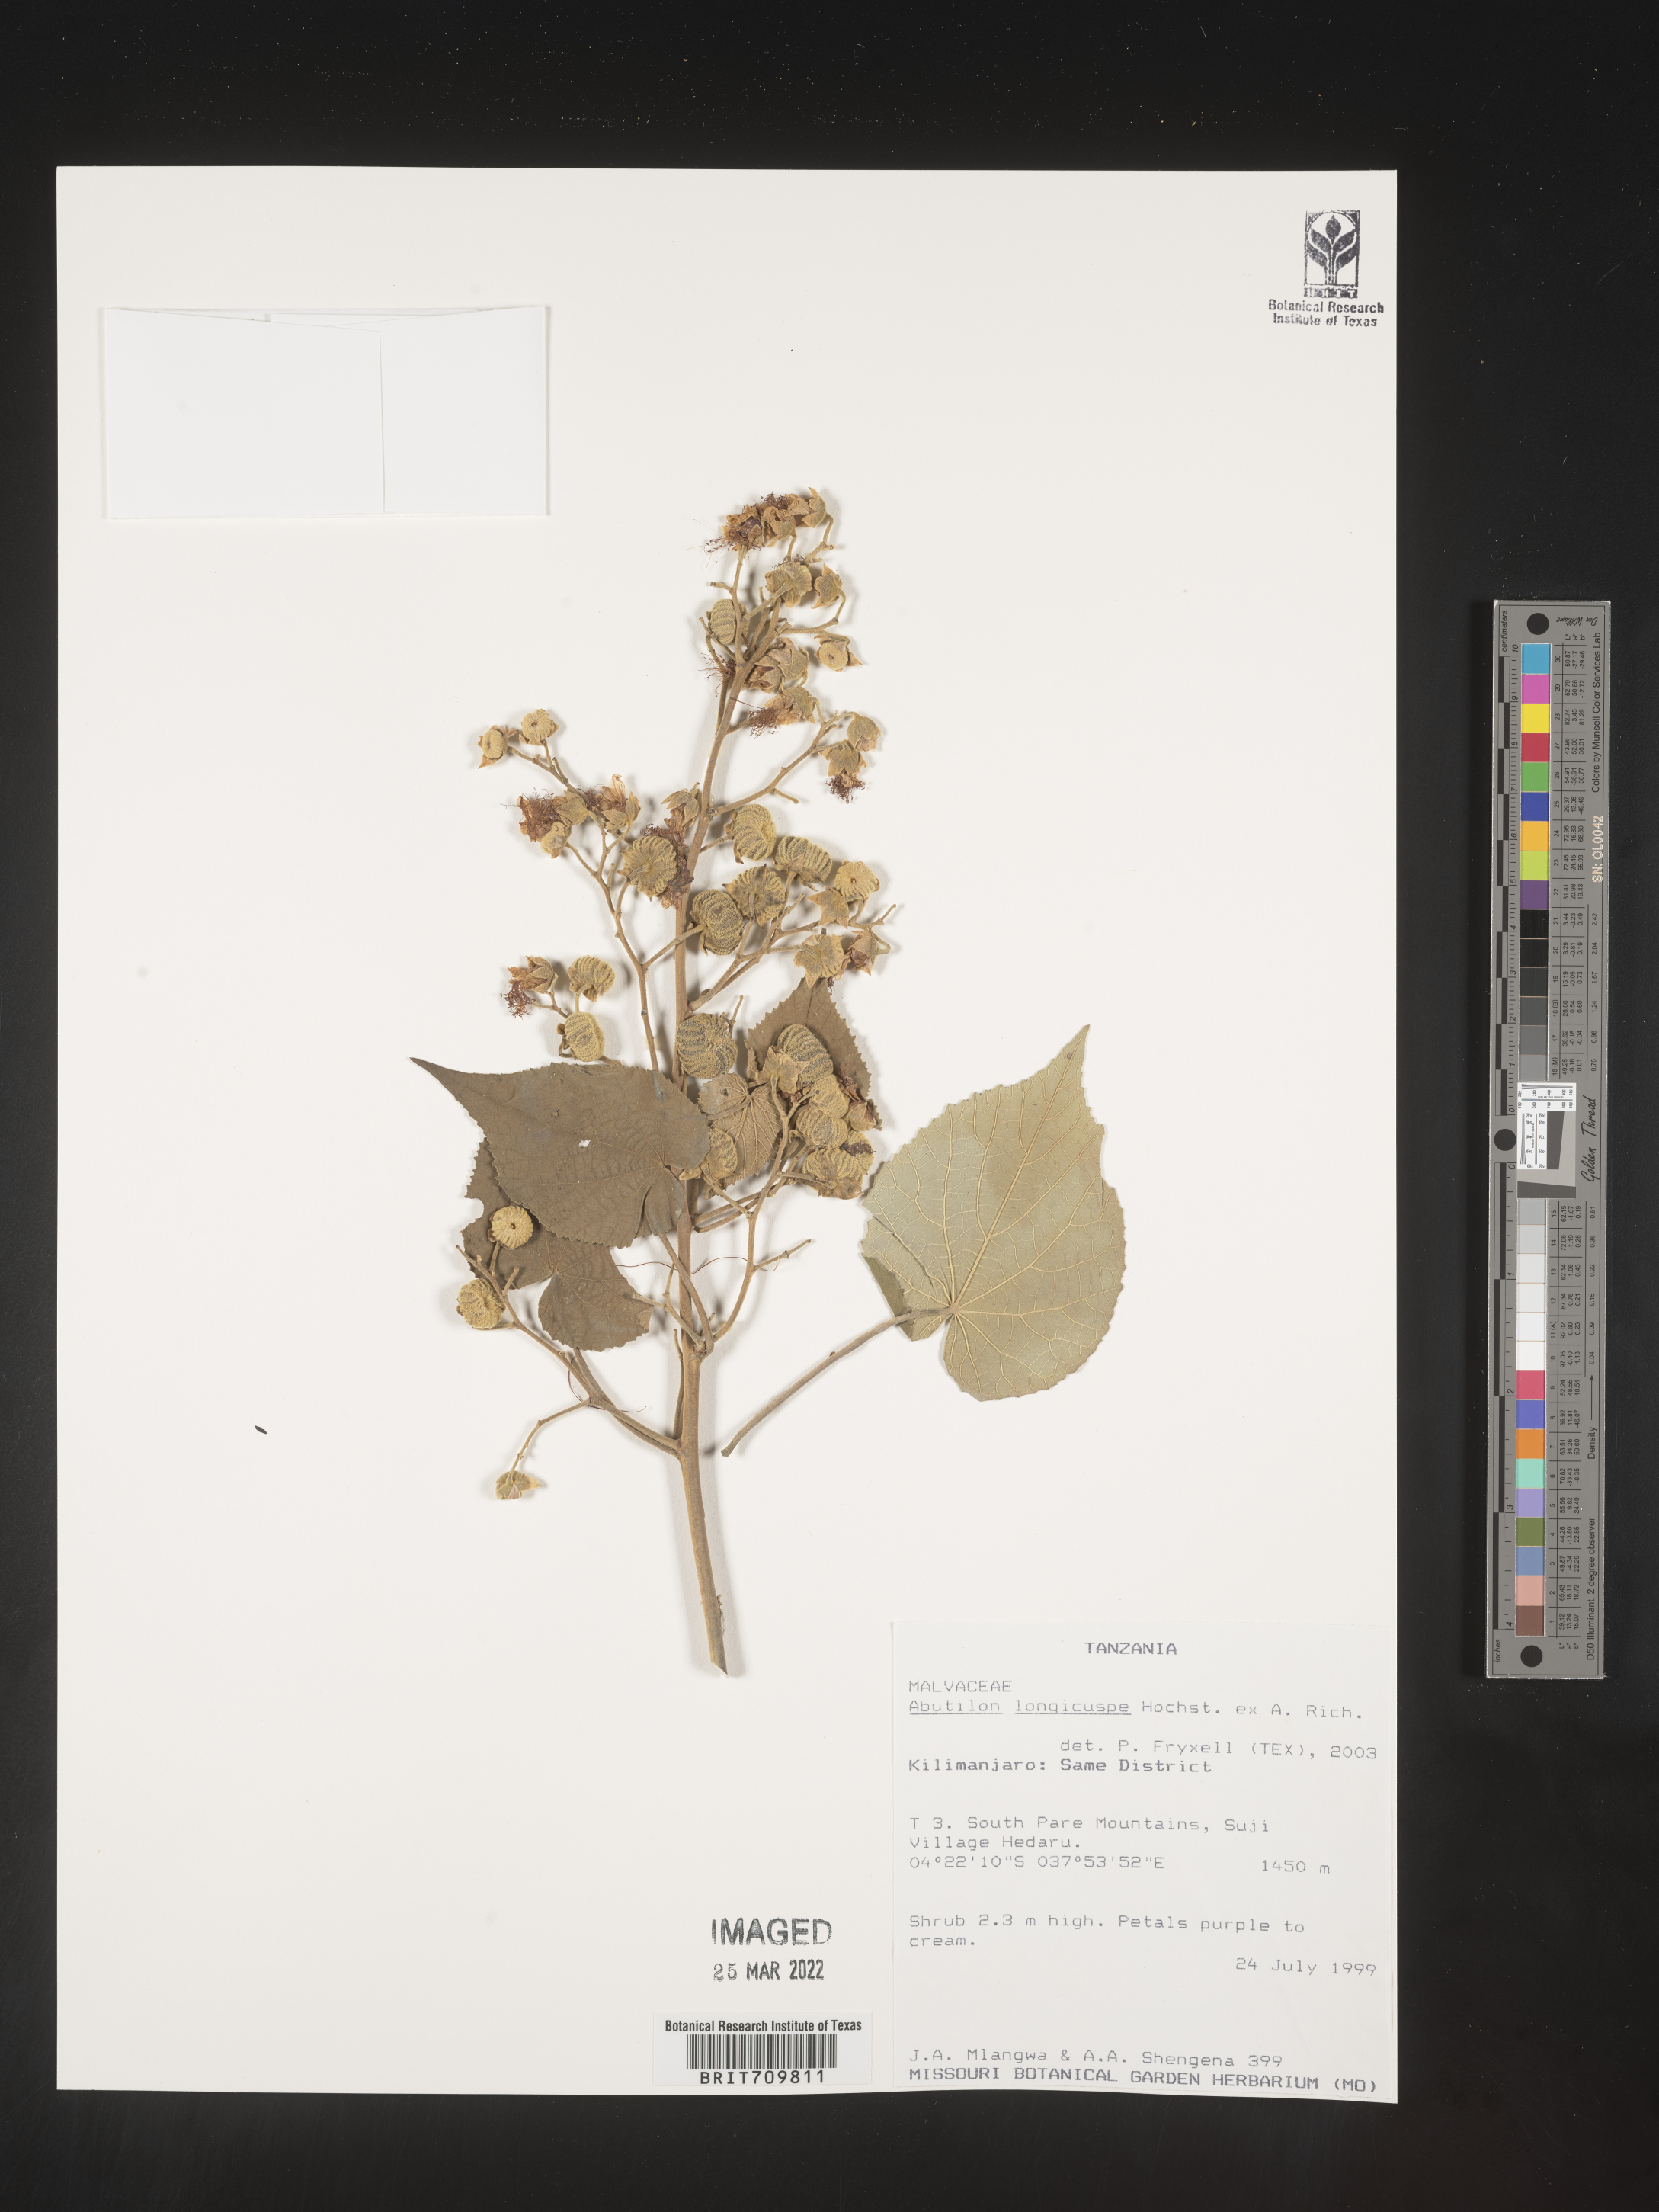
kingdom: Plantae
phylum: Tracheophyta
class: Magnoliopsida
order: Malvales
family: Malvaceae
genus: Abutilon
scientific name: Abutilon
